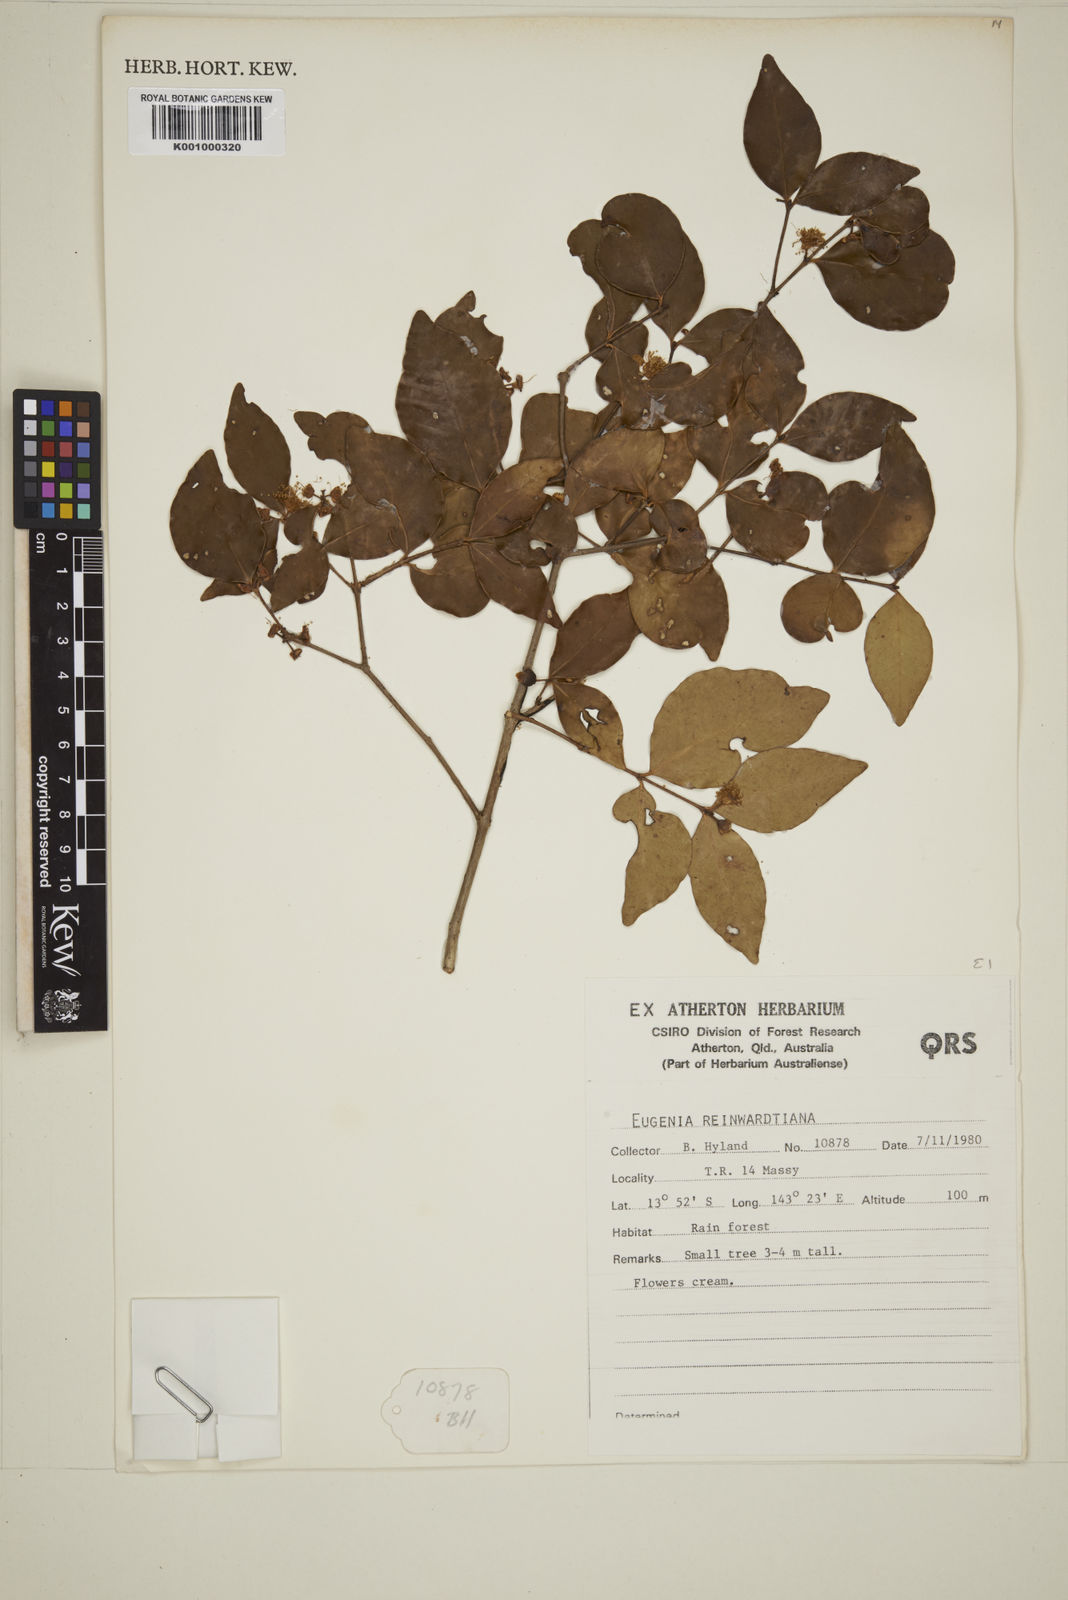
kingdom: Plantae
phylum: Tracheophyta
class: Magnoliopsida
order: Myrtales
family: Myrtaceae
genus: Eugenia
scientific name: Eugenia reinwardtiana
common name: Cedar bay-cherry
